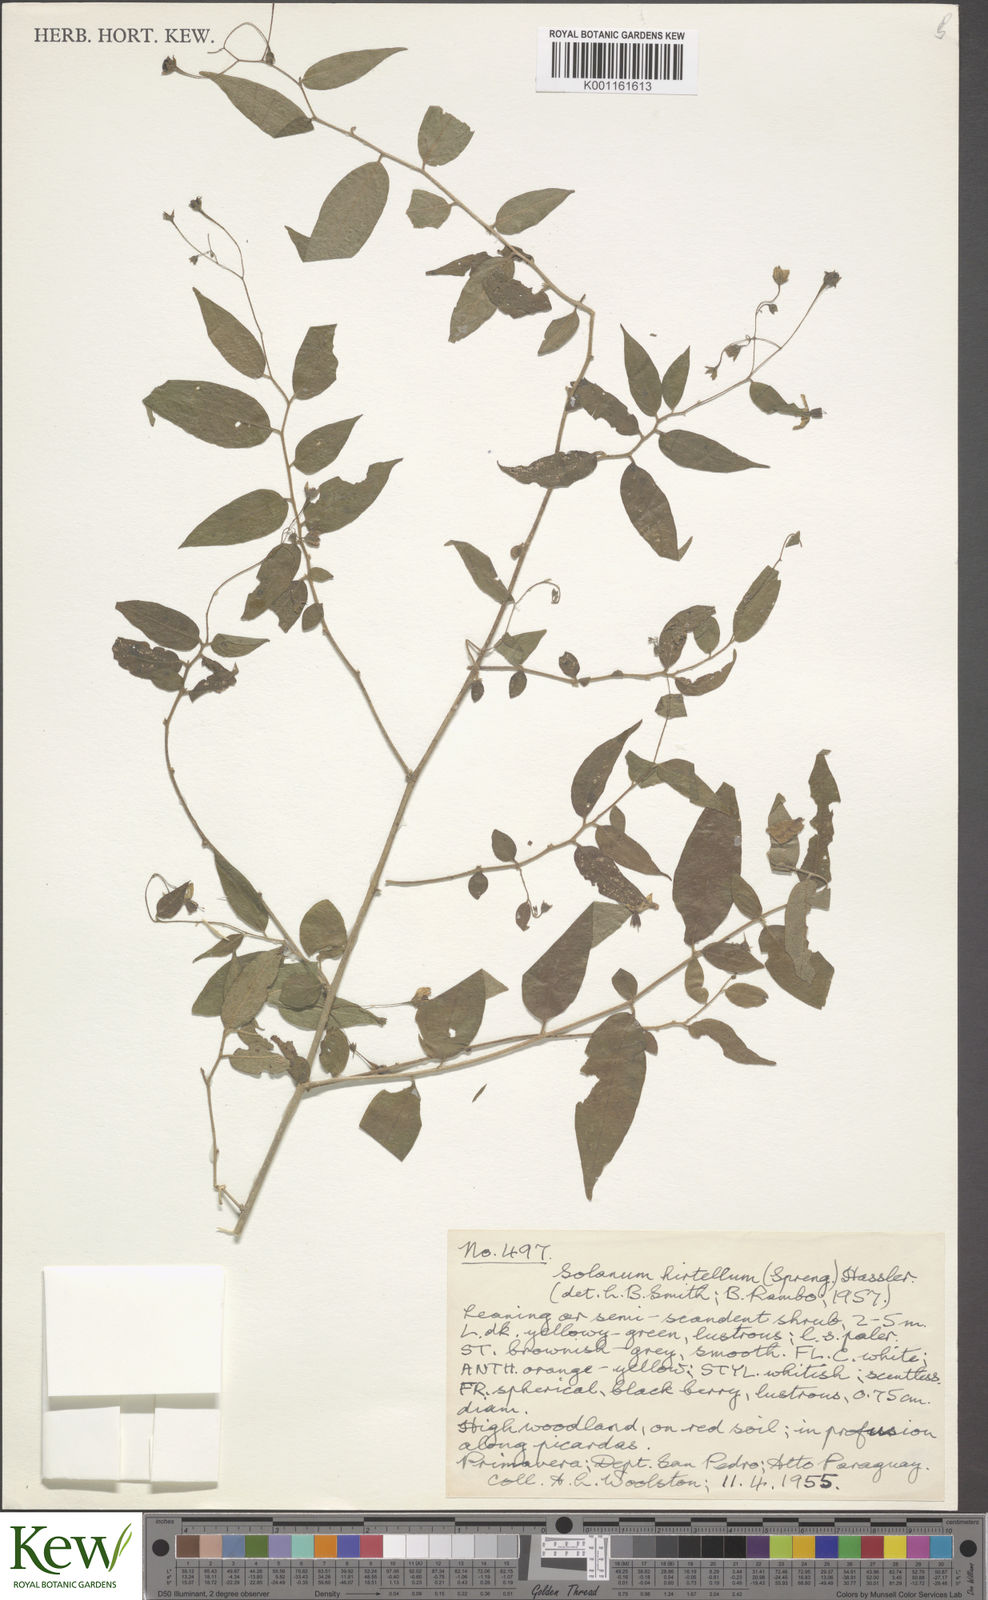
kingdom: Plantae
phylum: Tracheophyta
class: Magnoliopsida
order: Solanales
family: Solanaceae
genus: Solanum
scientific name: Solanum hirtellum
